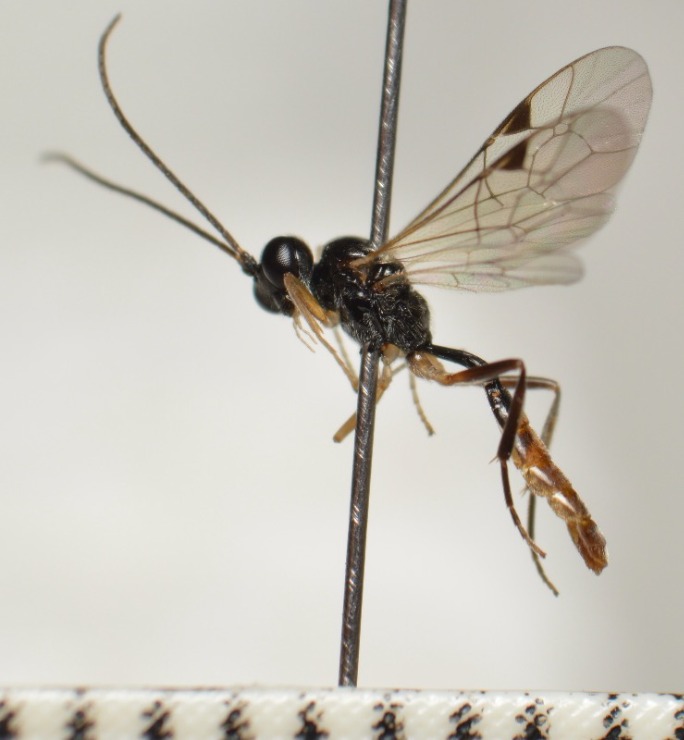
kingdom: Animalia
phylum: Arthropoda
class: Insecta
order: Hymenoptera
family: Ichneumonidae
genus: Bathythrix
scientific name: Bathythrix pellucidator
